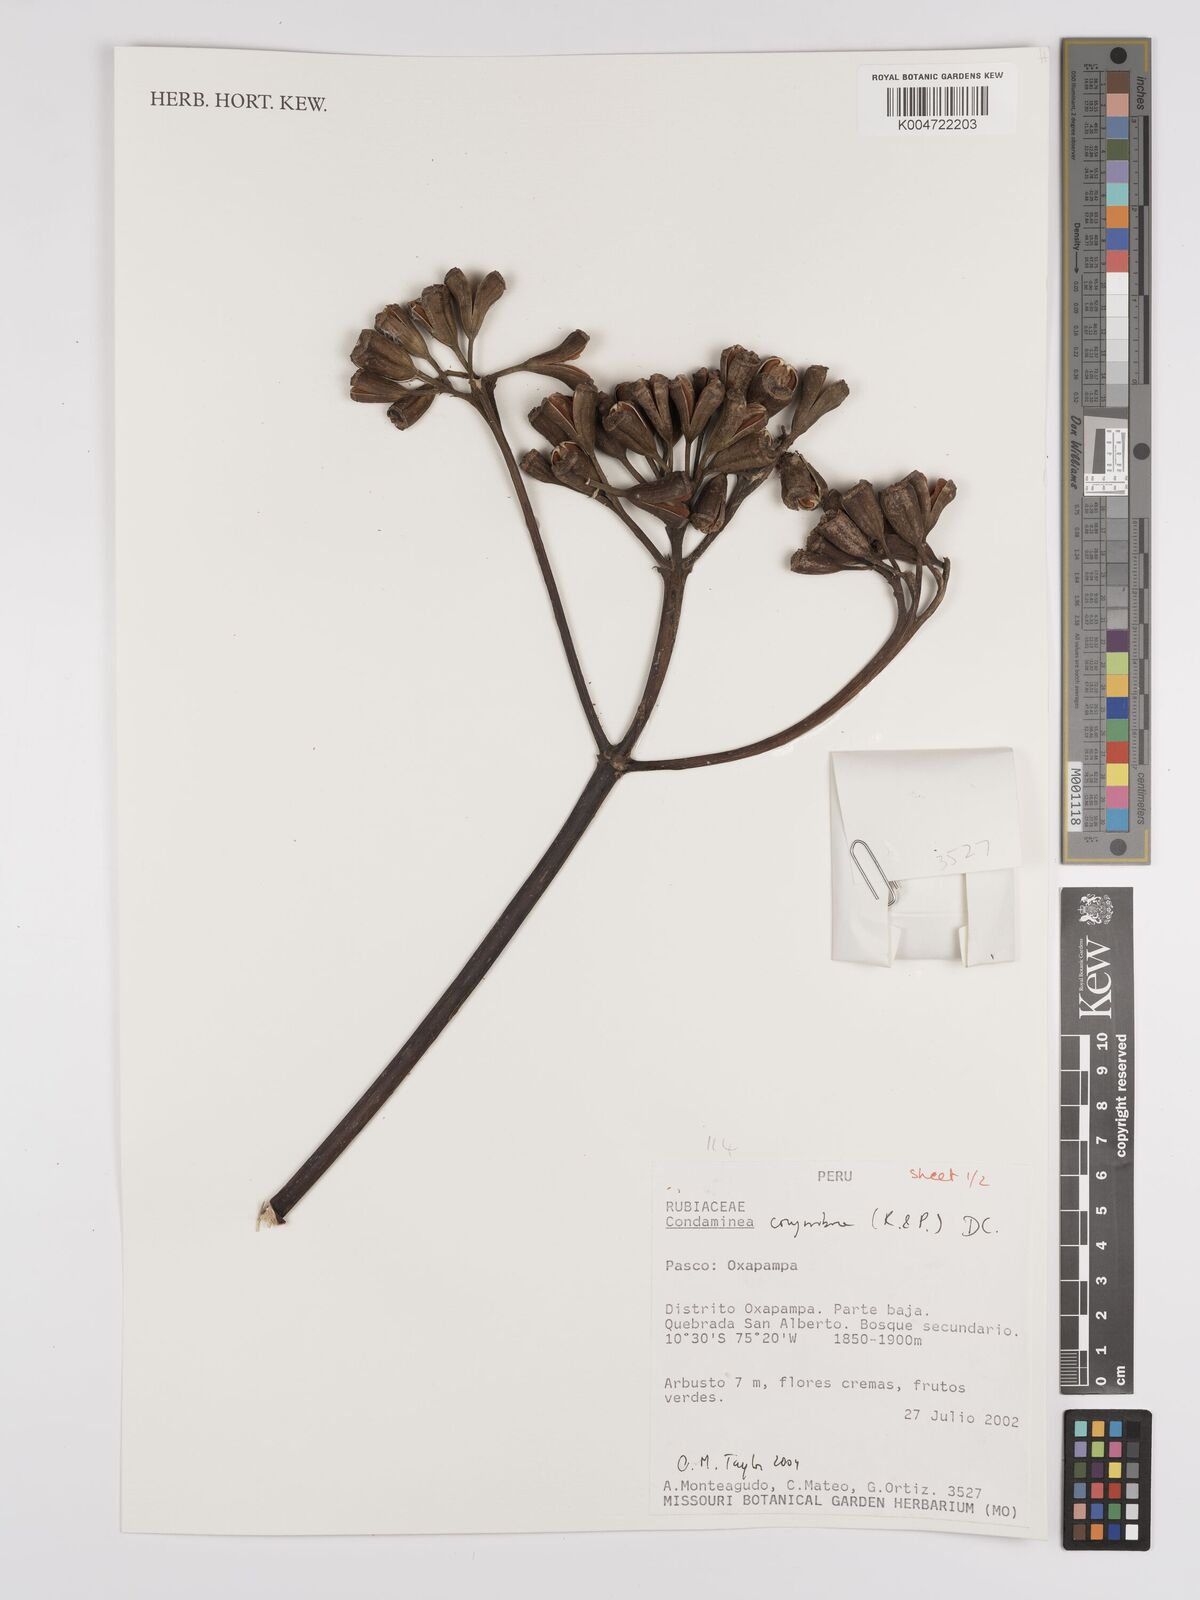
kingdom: Plantae
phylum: Tracheophyta
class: Magnoliopsida
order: Gentianales
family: Rubiaceae
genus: Condaminea
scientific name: Condaminea corymbosa
